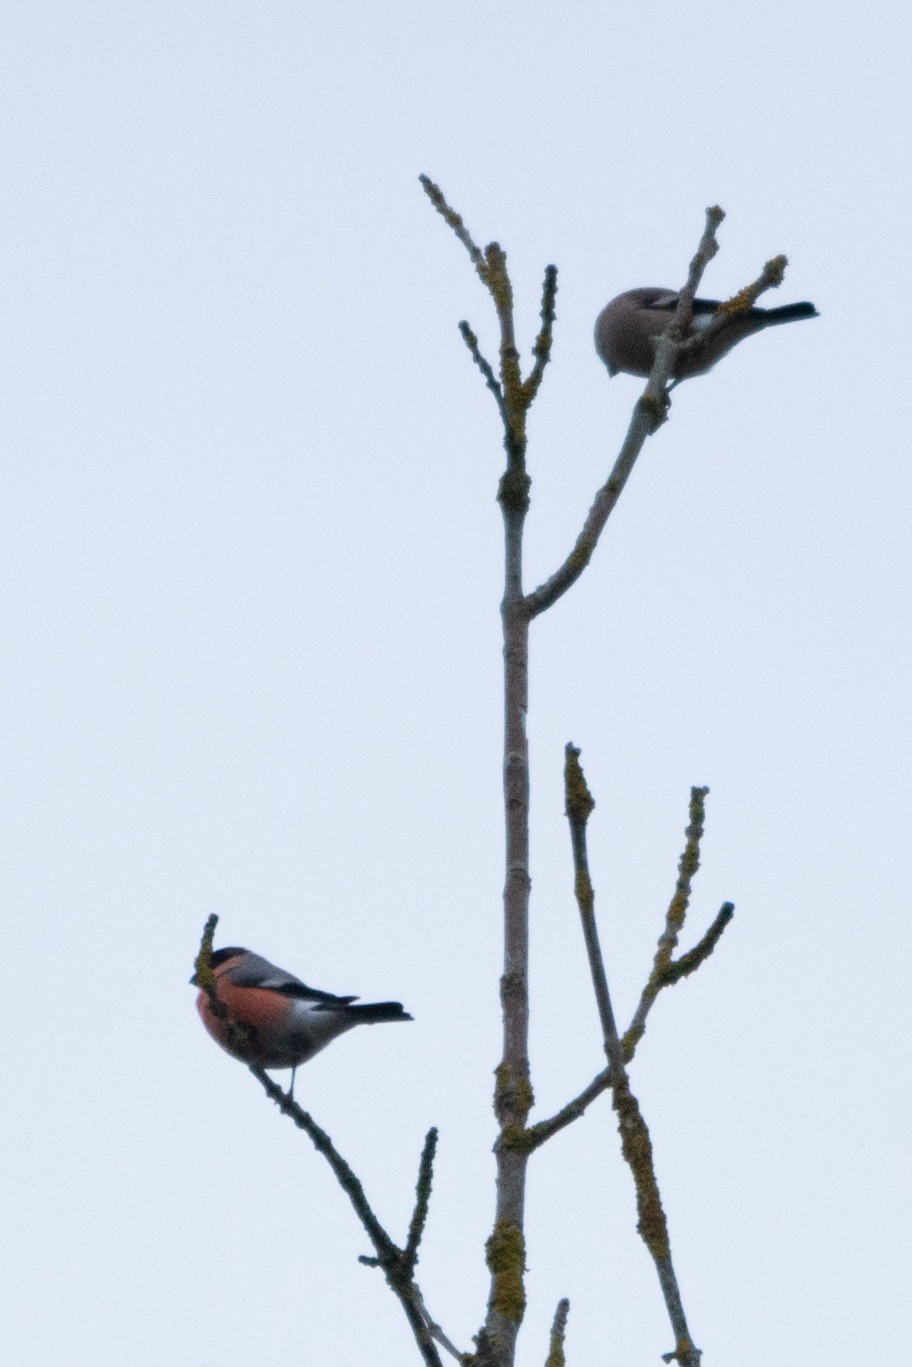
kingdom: Animalia
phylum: Chordata
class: Aves
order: Passeriformes
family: Fringillidae
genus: Pyrrhula
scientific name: Pyrrhula pyrrhula
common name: Dompap
